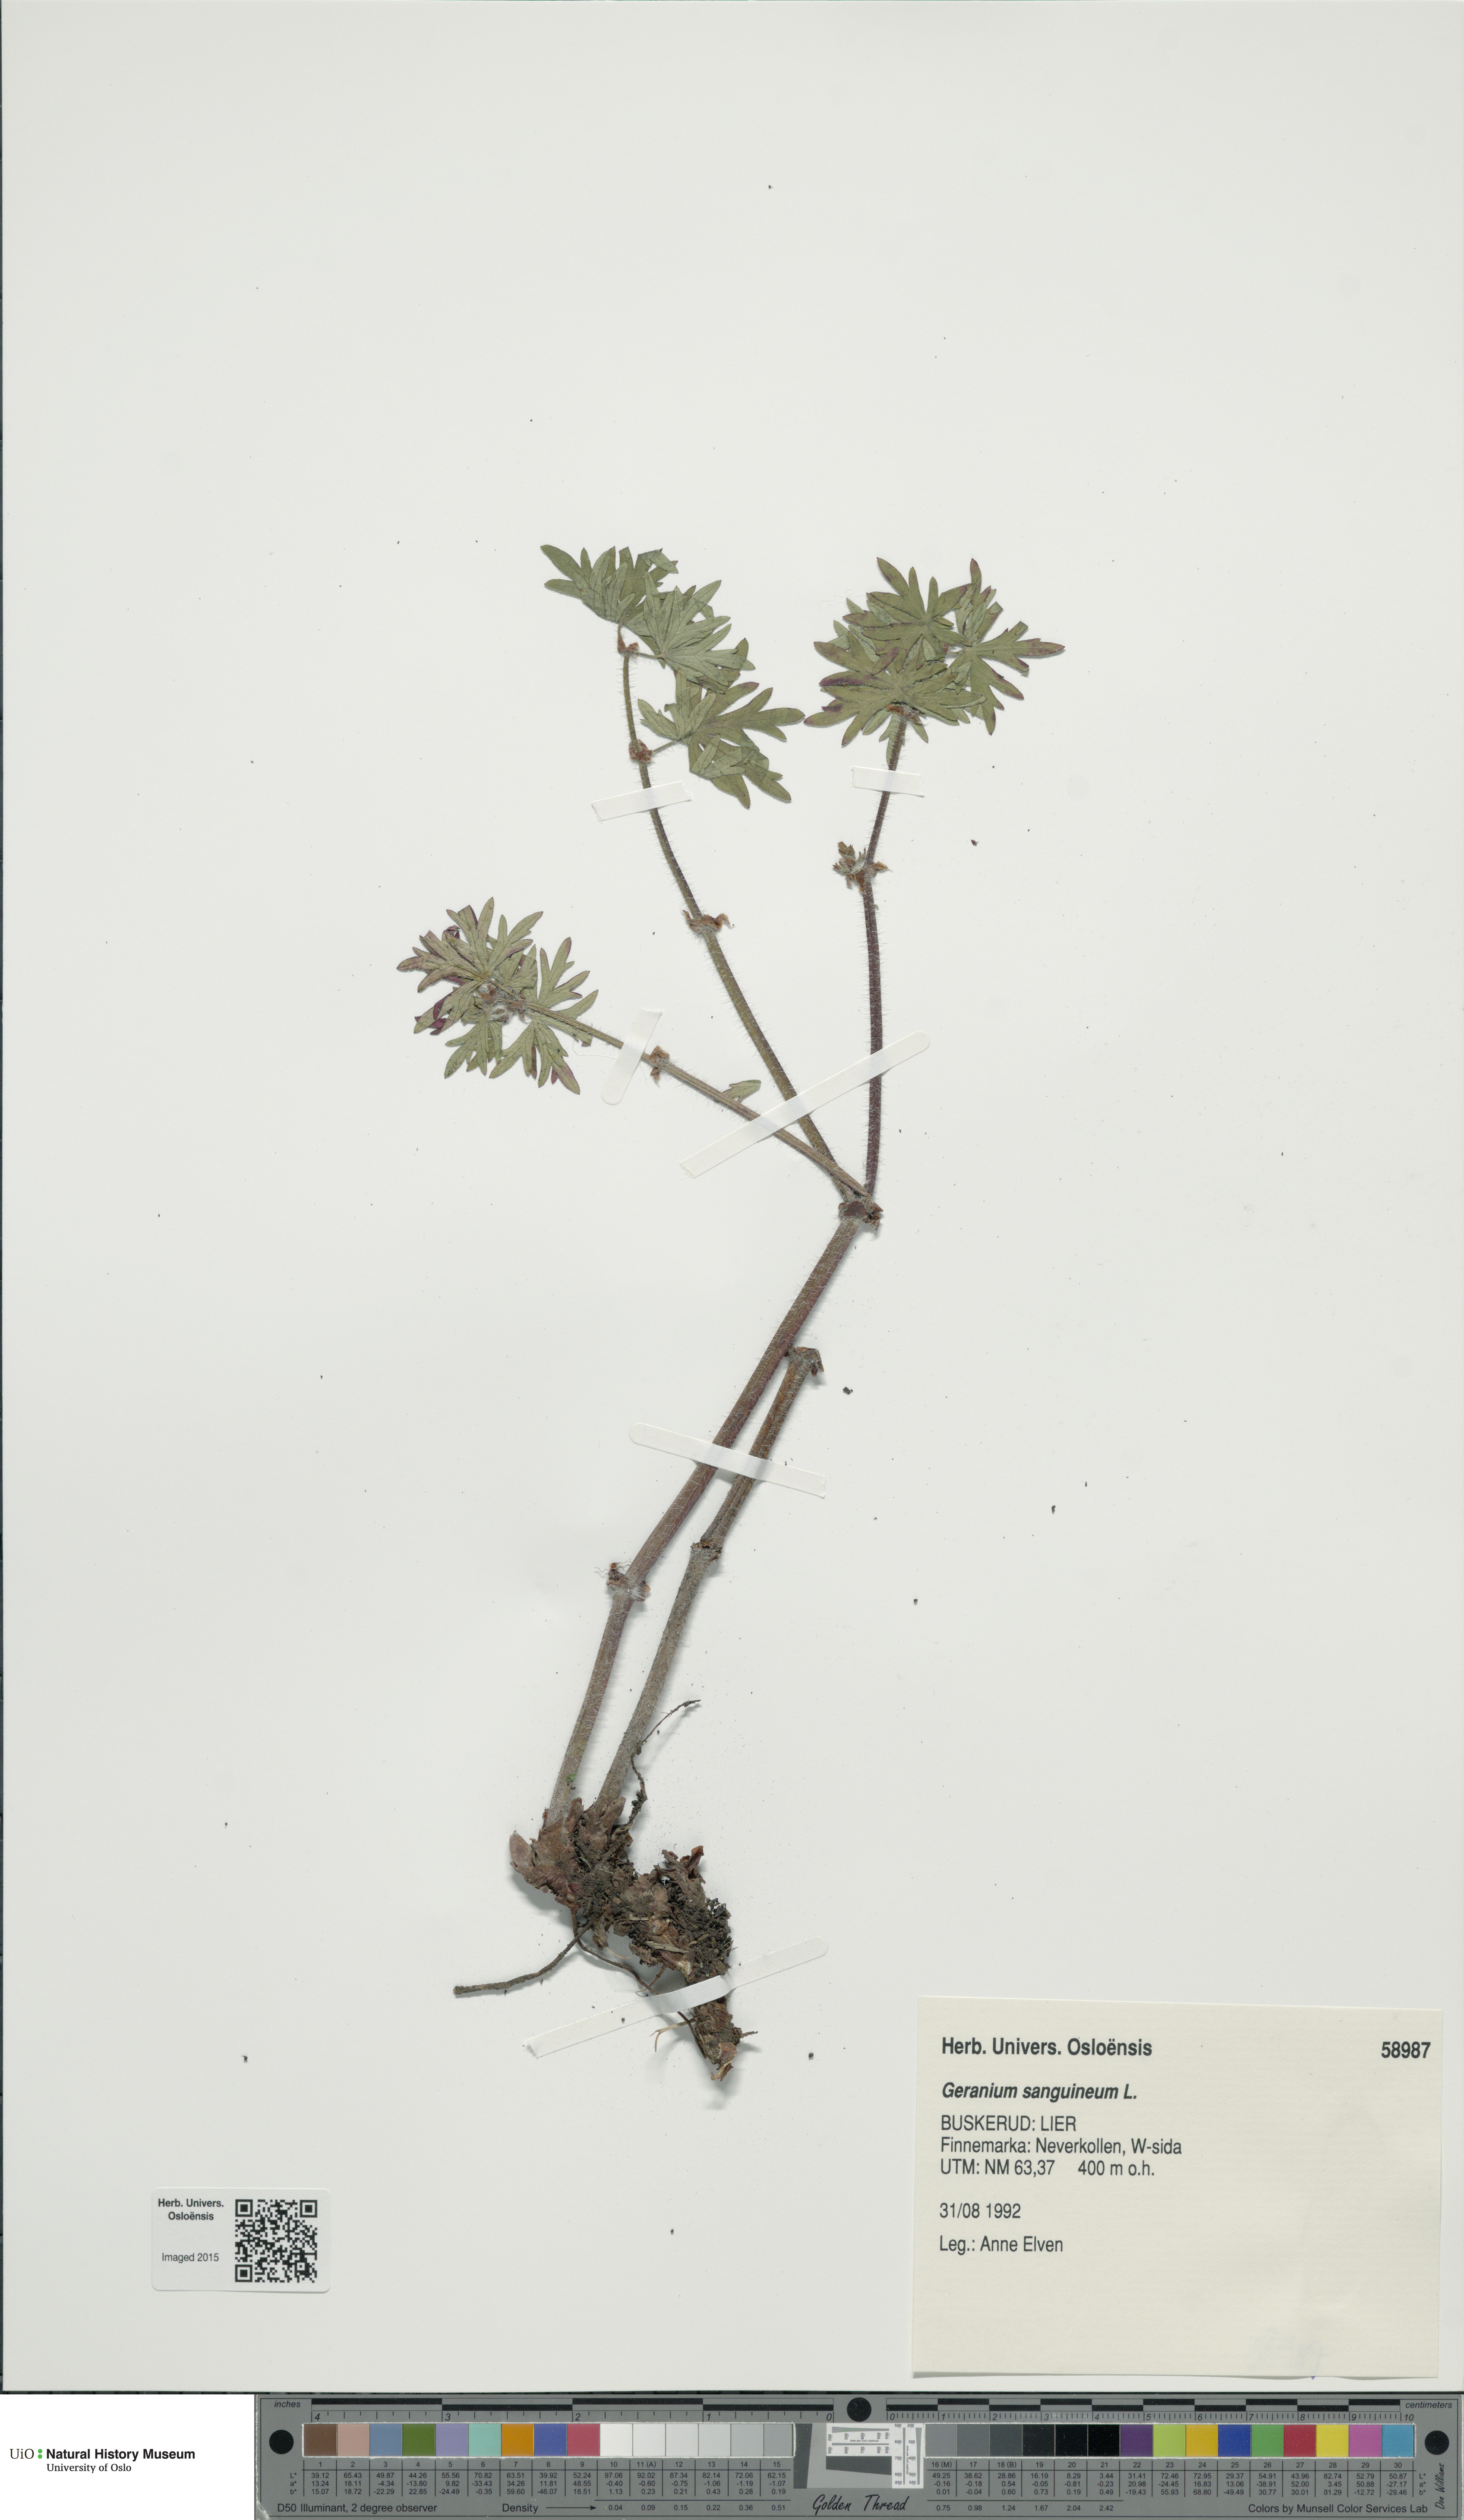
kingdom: Plantae
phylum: Tracheophyta
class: Magnoliopsida
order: Geraniales
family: Geraniaceae
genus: Geranium
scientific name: Geranium sanguineum
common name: Bloody crane's-bill
